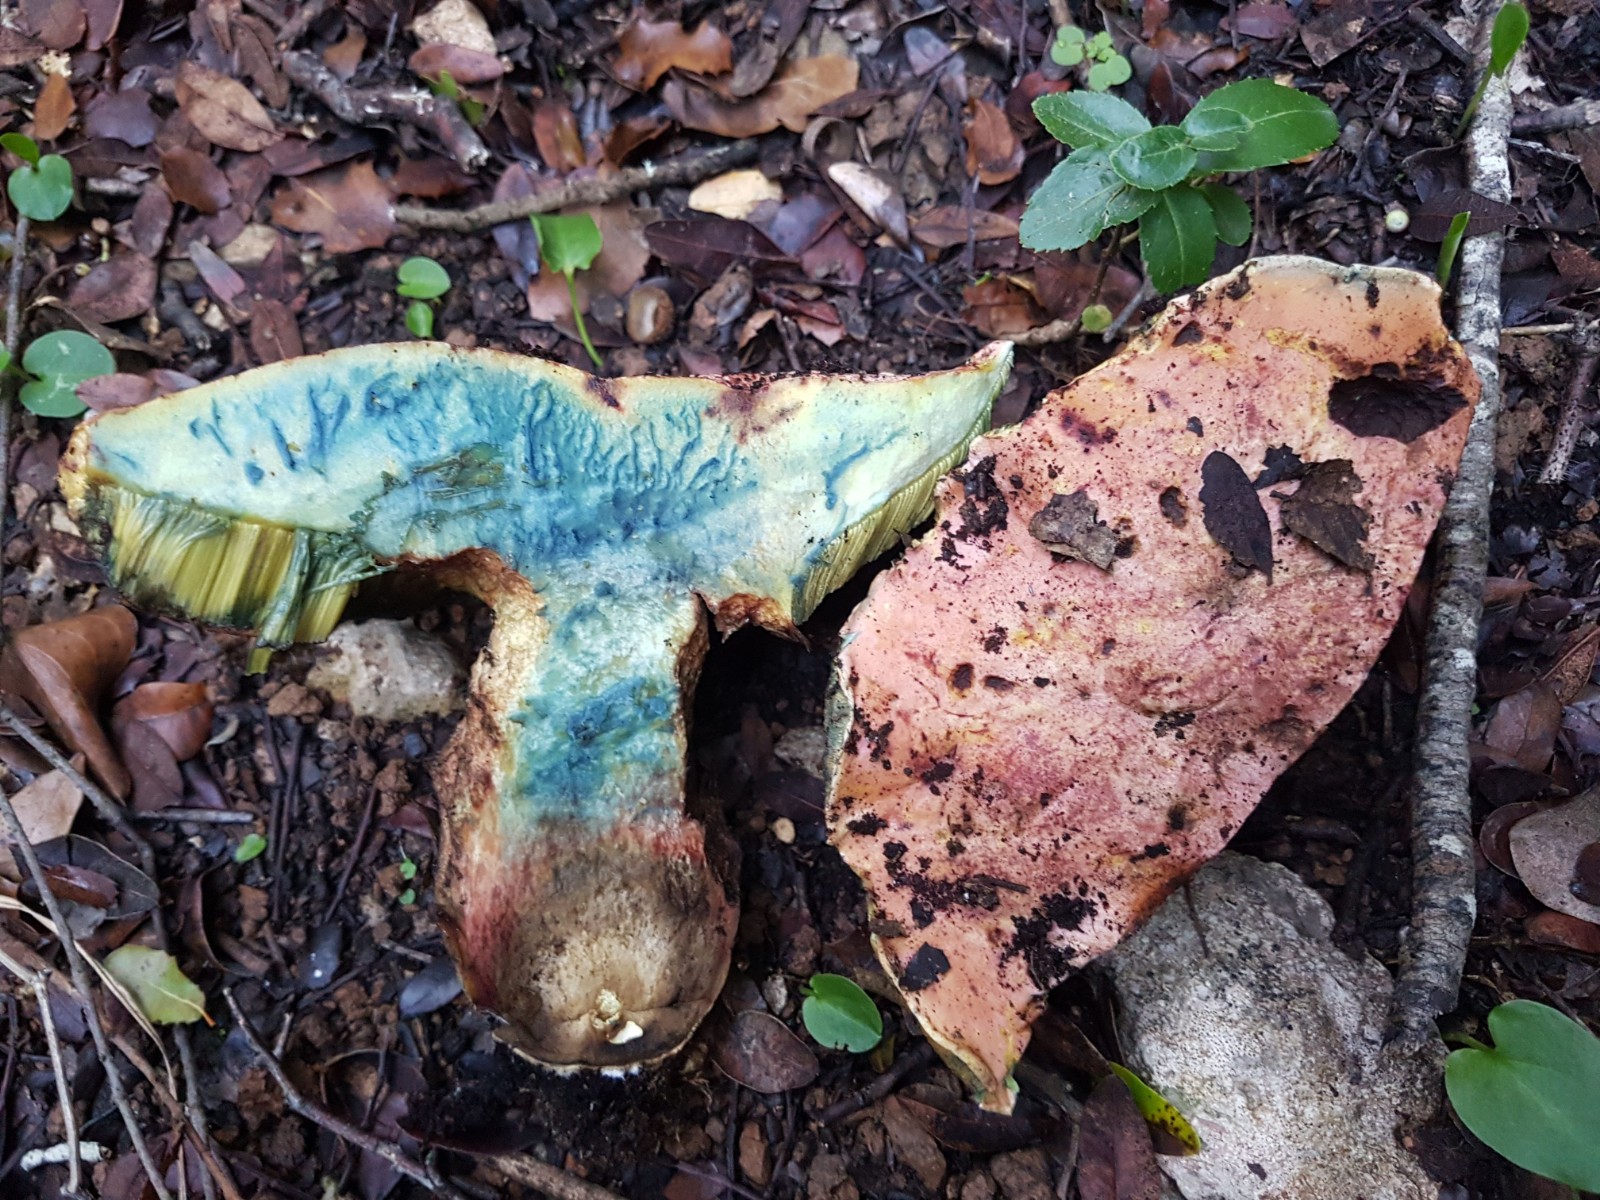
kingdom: Fungi
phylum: Basidiomycota
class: Agaricomycetes
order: Boletales
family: Boletaceae
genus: Rubroboletus
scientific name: Rubroboletus lupinus
